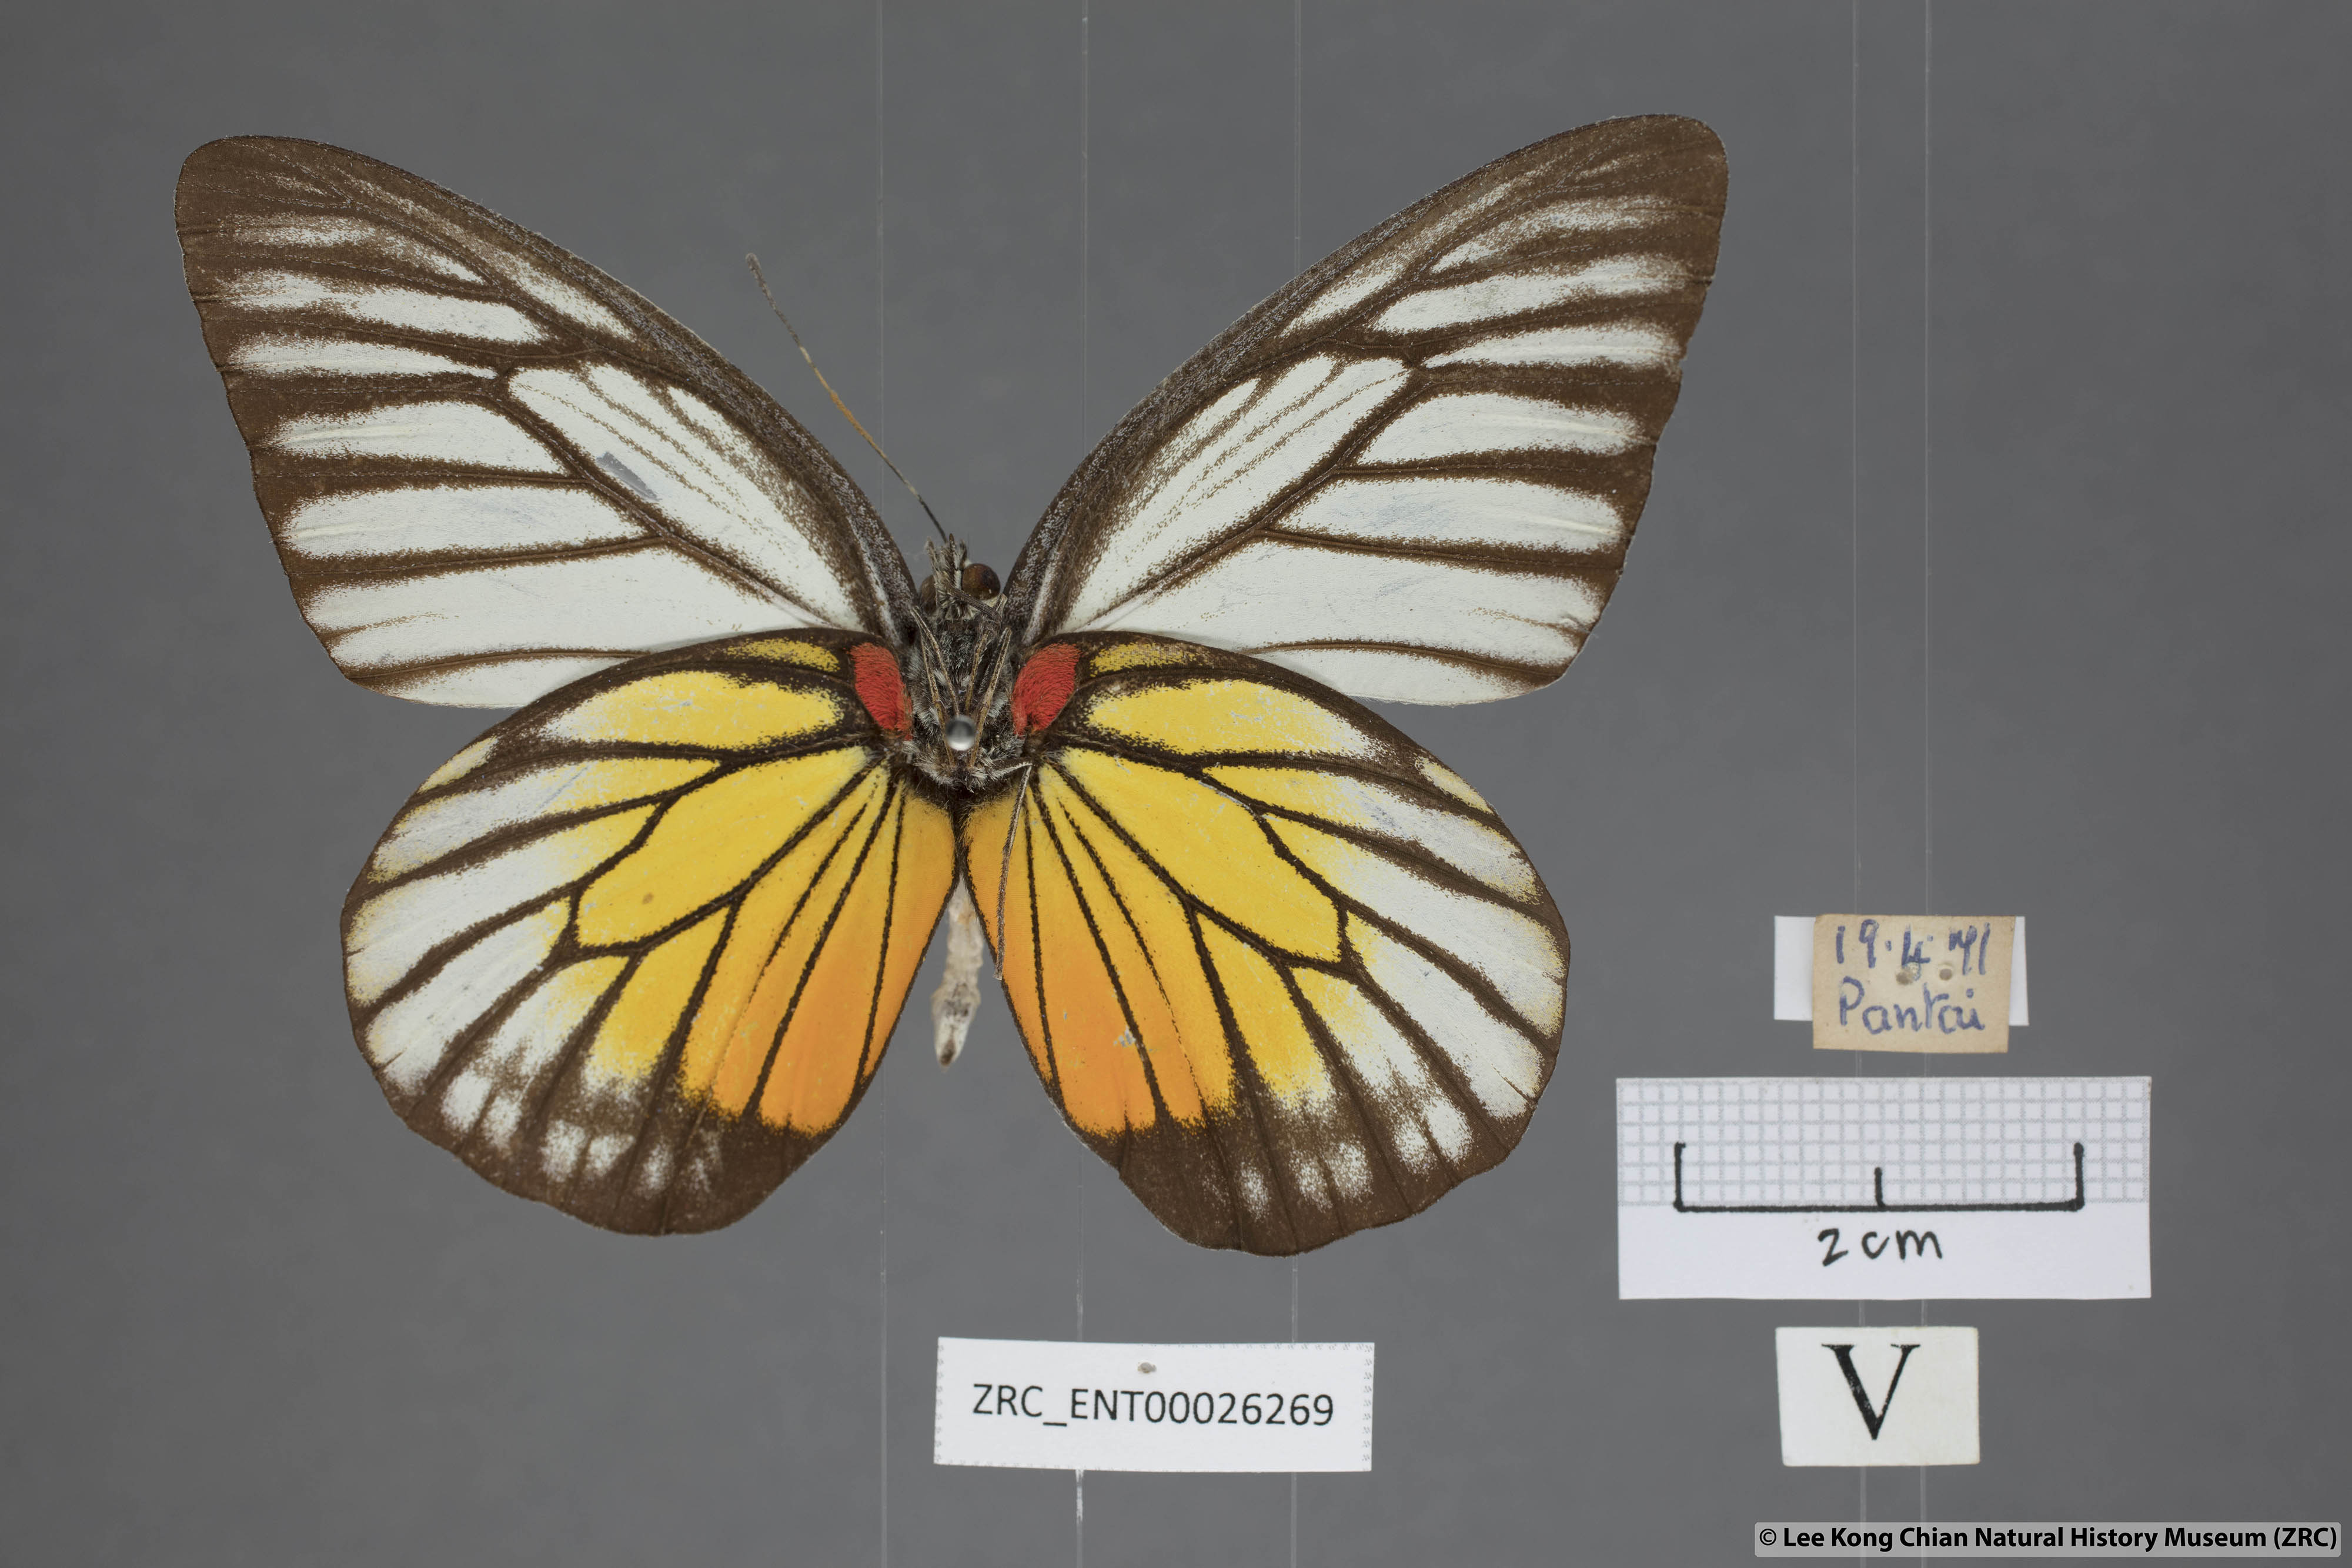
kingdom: Animalia
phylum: Arthropoda
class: Insecta
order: Lepidoptera
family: Pieridae
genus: Prioneris
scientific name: Prioneris philonome
